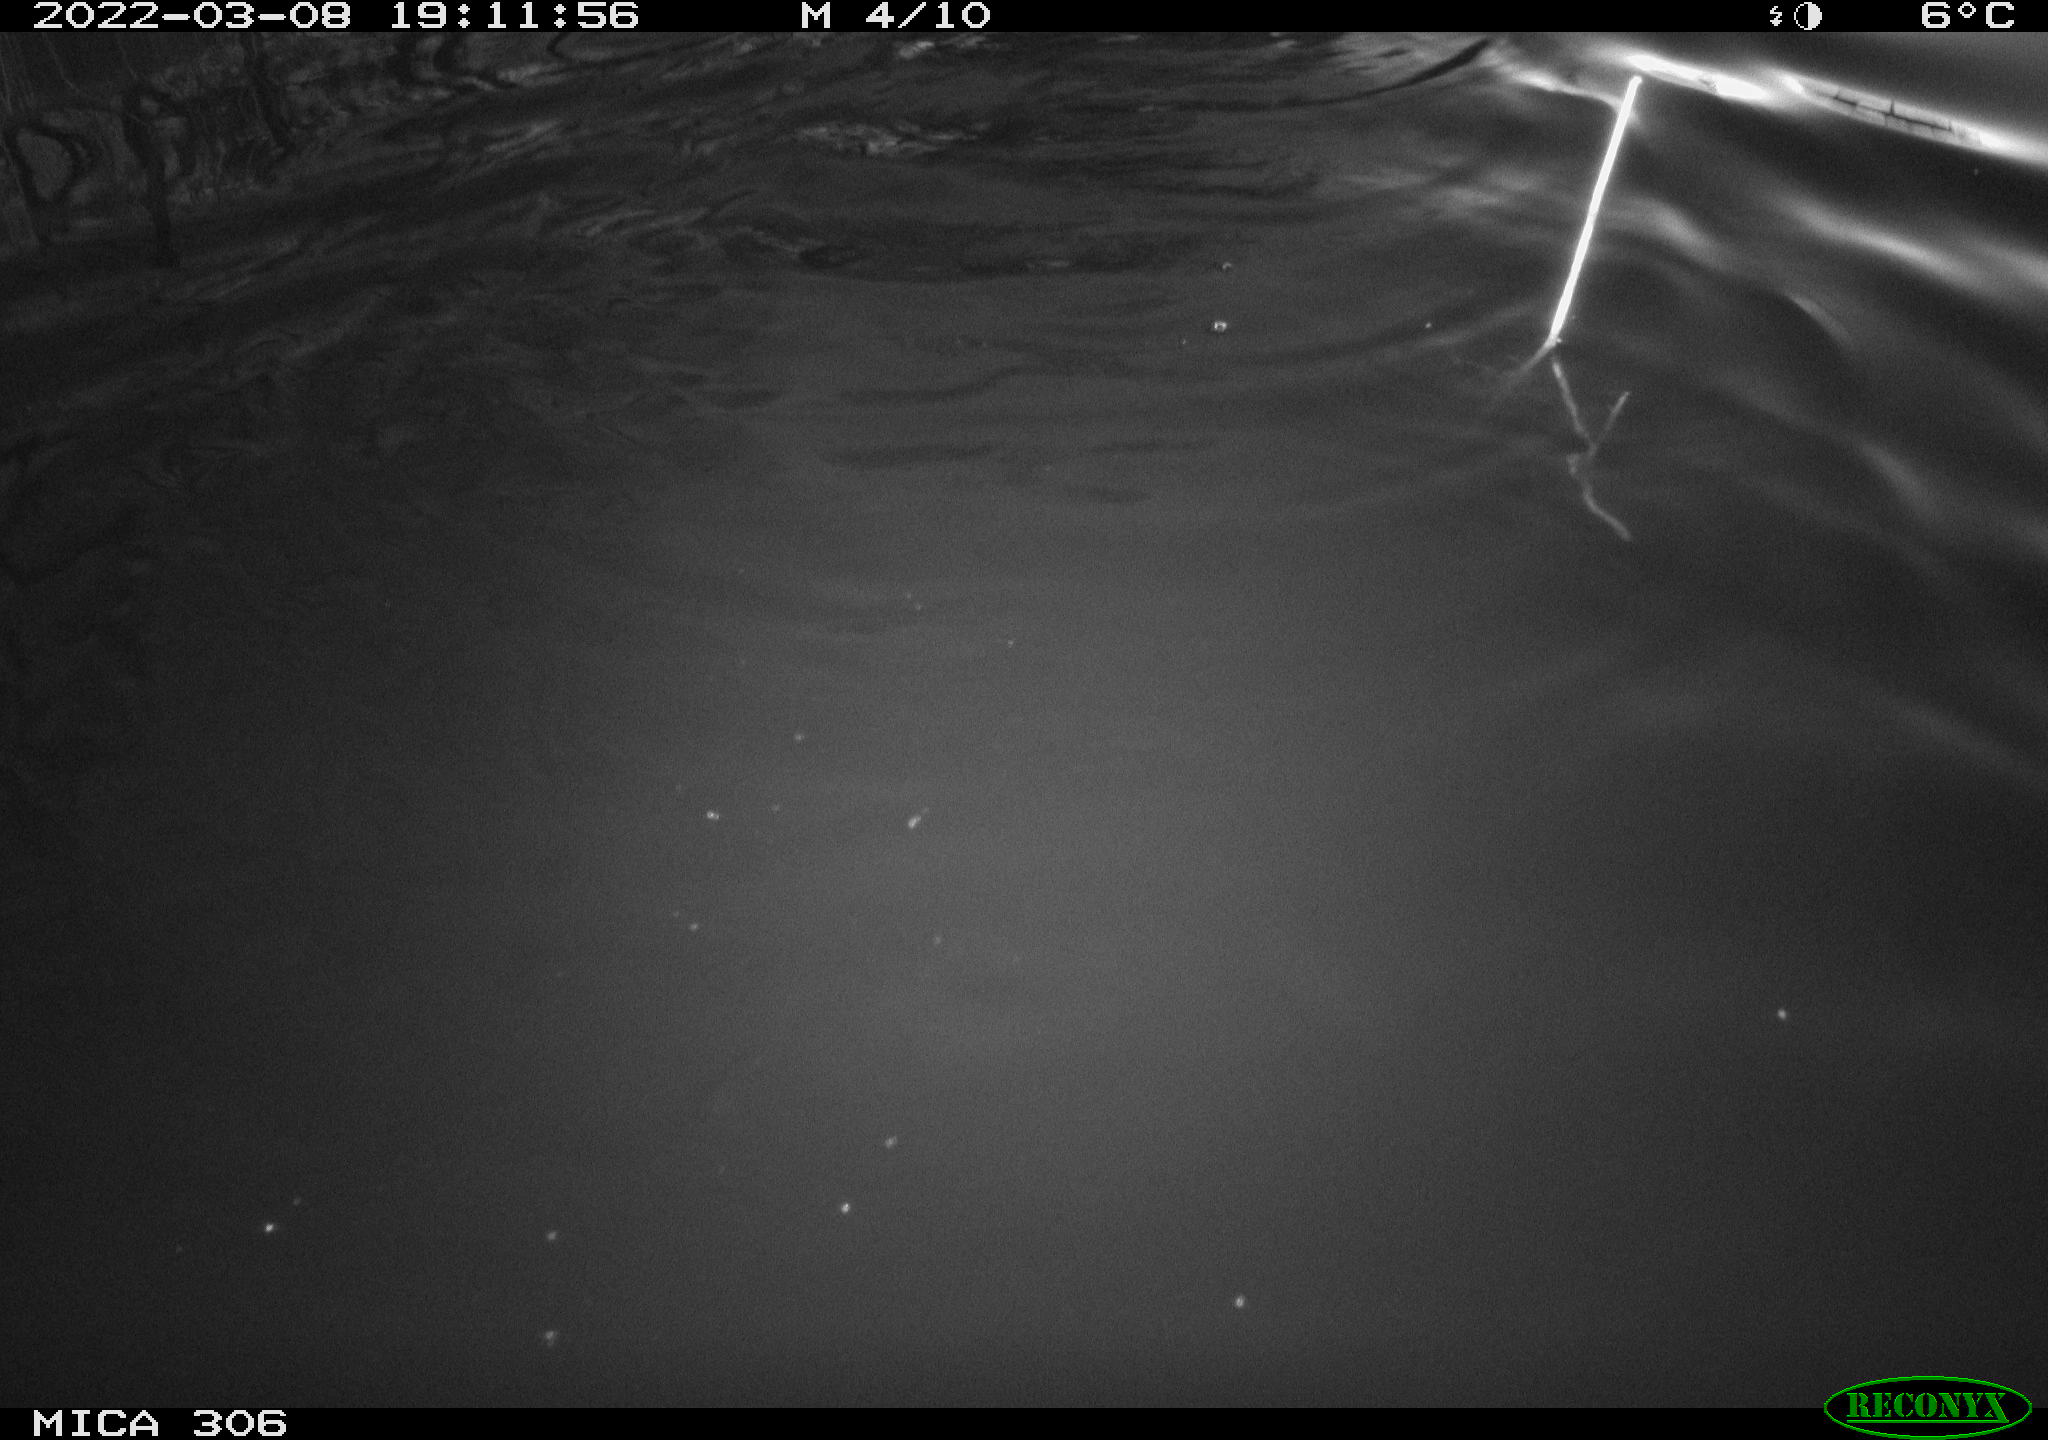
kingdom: Animalia
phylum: Chordata
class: Mammalia
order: Rodentia
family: Cricetidae
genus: Ondatra
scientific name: Ondatra zibethicus
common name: Muskrat
